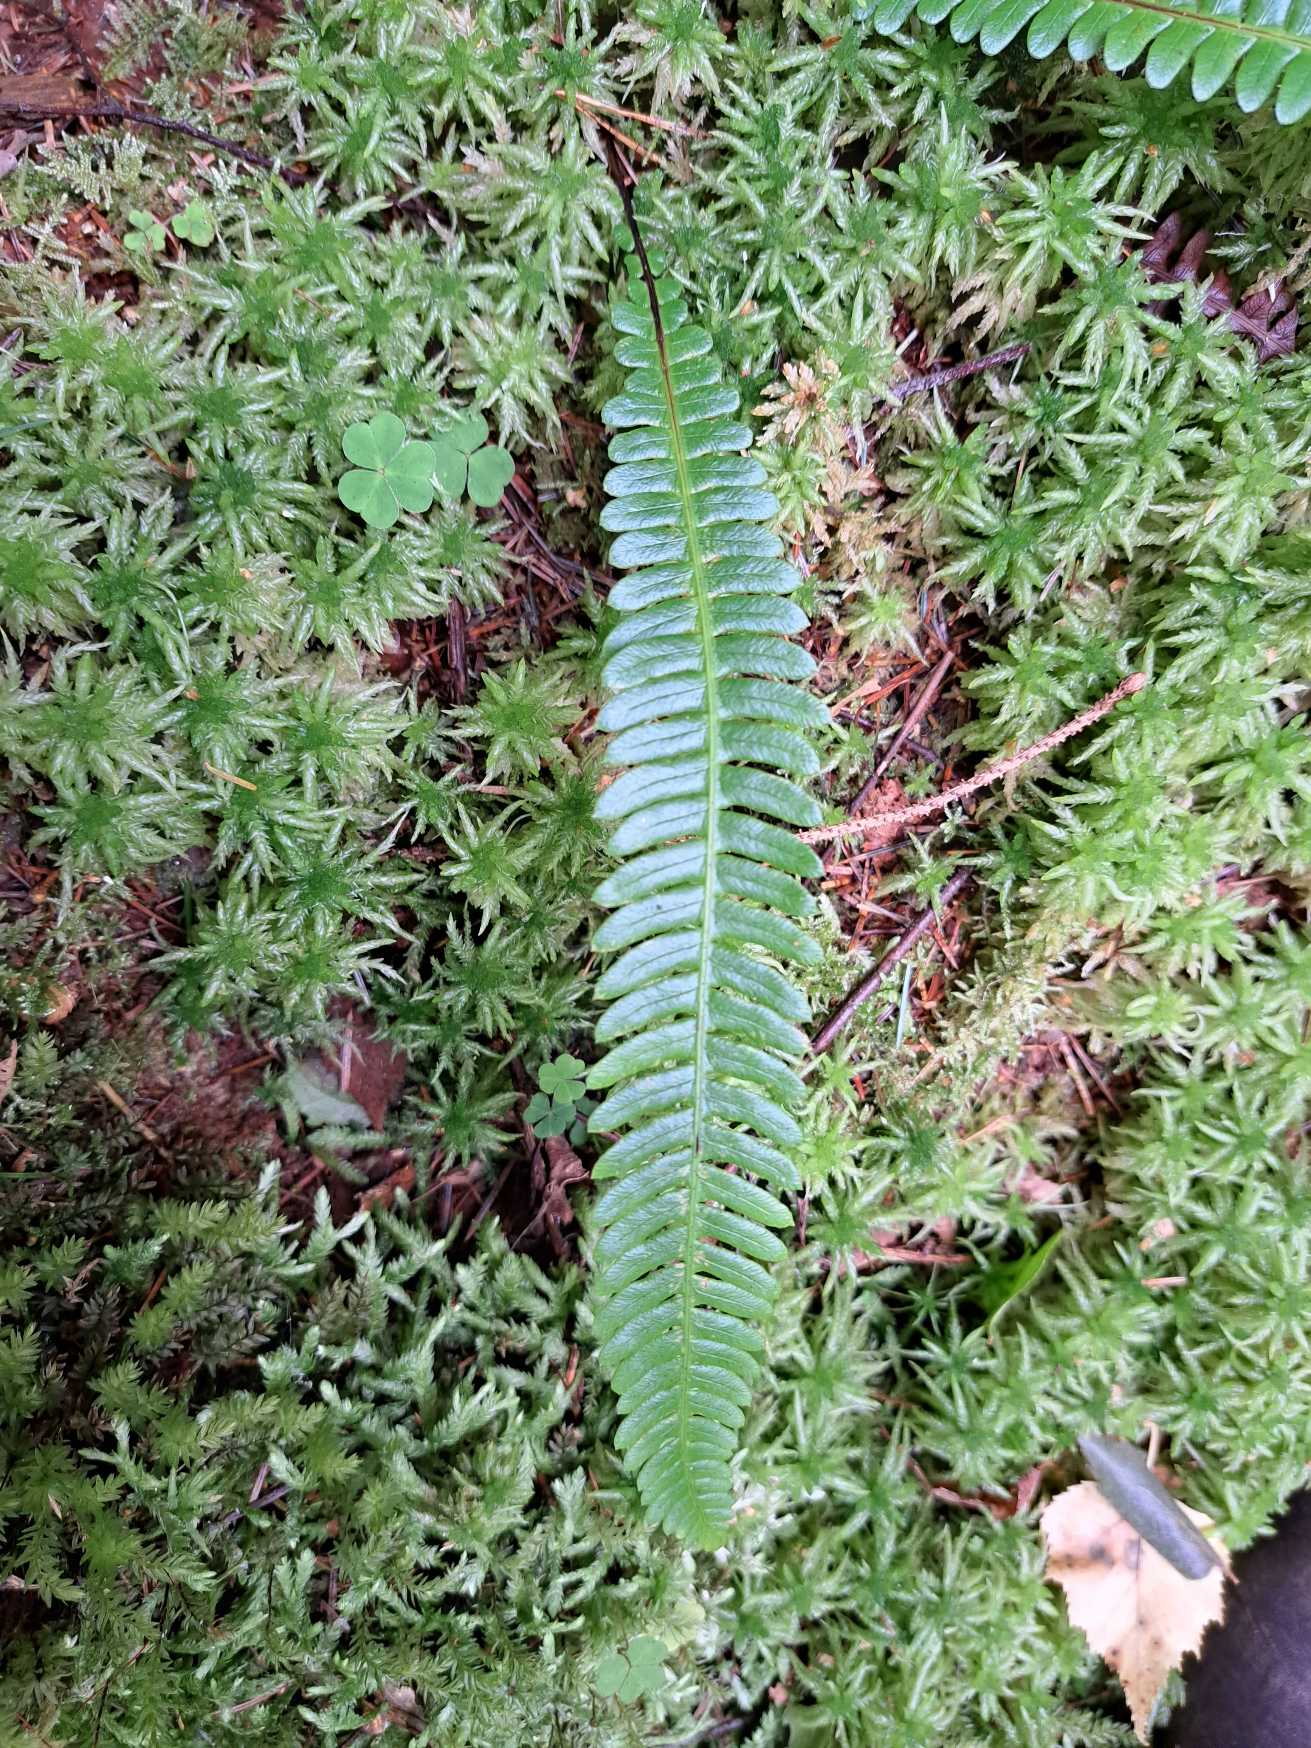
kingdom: Plantae
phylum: Tracheophyta
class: Polypodiopsida
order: Polypodiales
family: Blechnaceae
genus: Struthiopteris
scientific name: Struthiopteris spicant
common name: Kambregne
